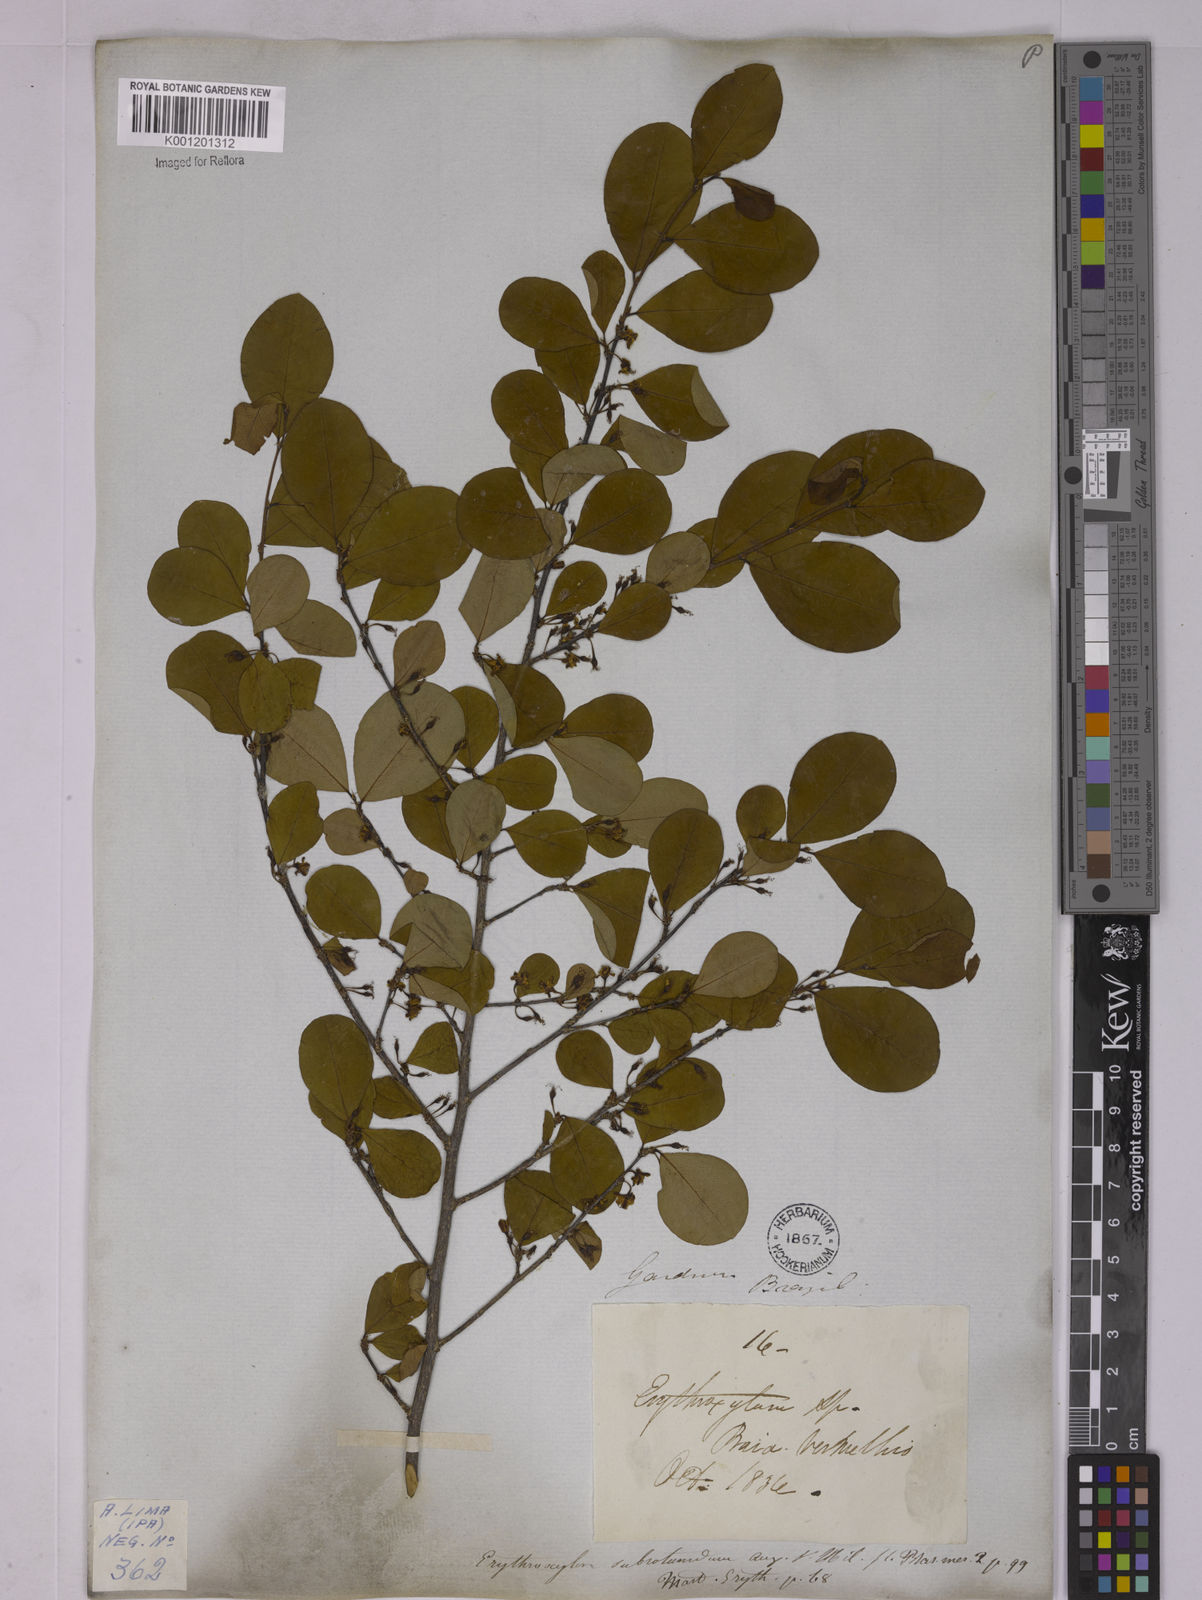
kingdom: Plantae
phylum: Tracheophyta
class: Magnoliopsida
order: Malpighiales
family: Erythroxylaceae
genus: Erythroxylum
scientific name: Erythroxylum subrotundum
